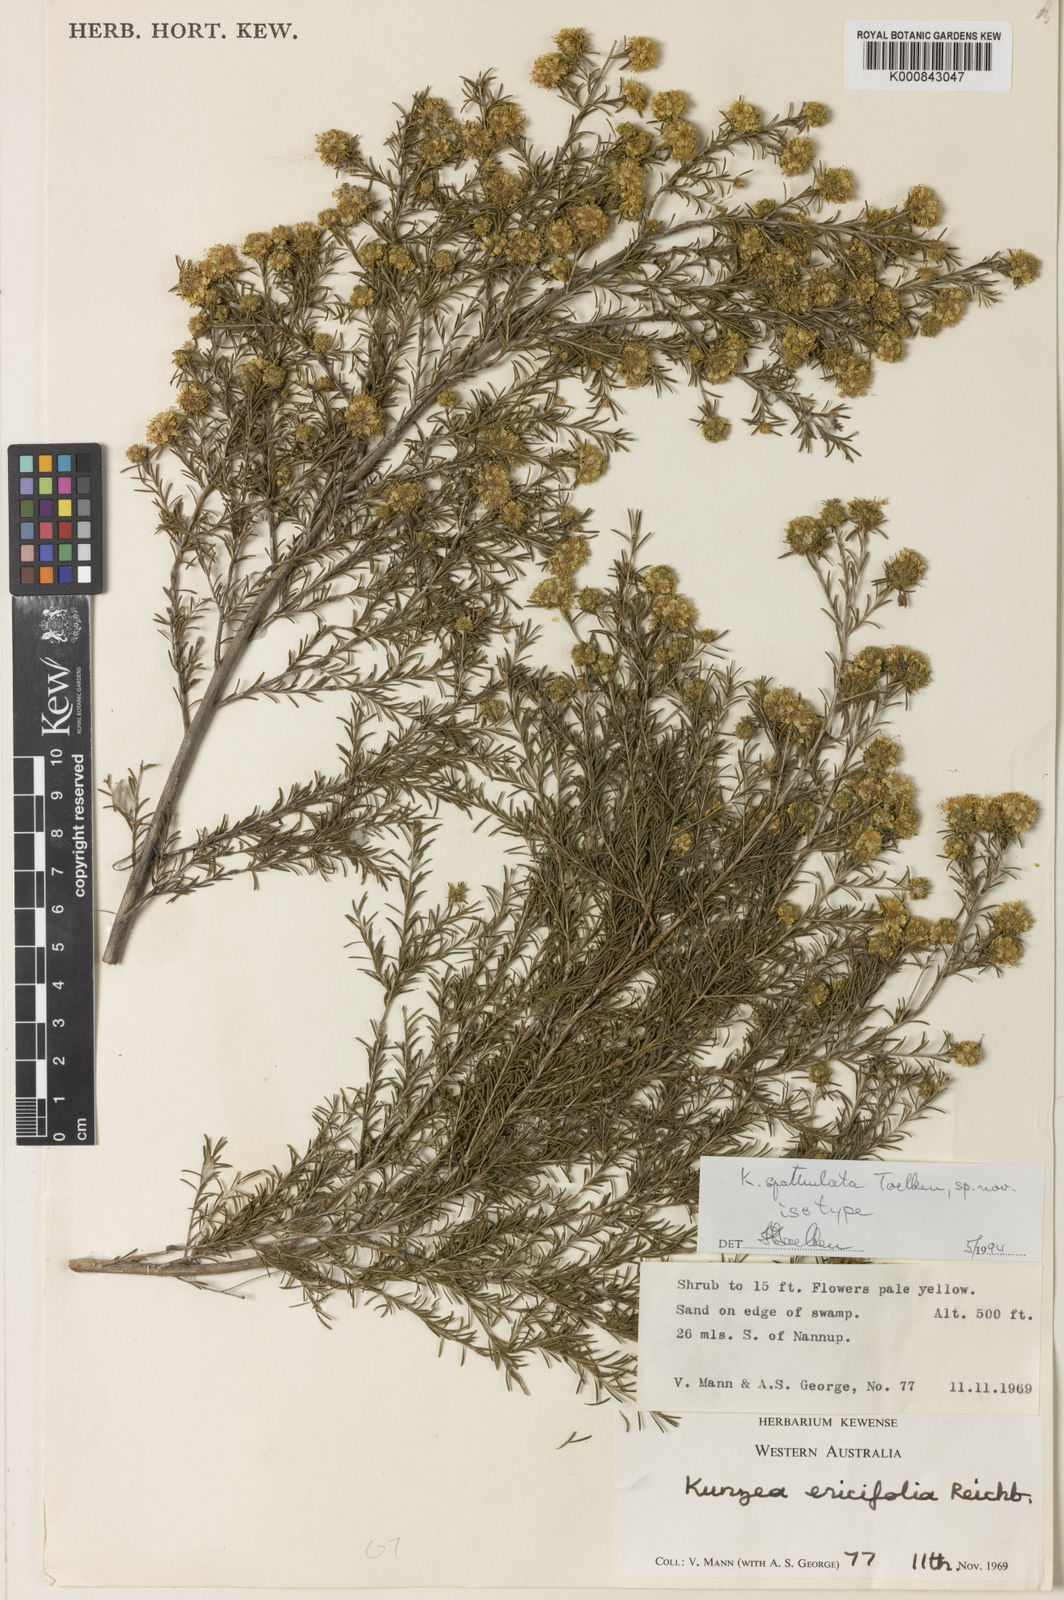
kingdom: Plantae
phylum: Tracheophyta
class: Magnoliopsida
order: Myrtales
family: Myrtaceae
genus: Kunzea
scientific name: Kunzea spathulata
